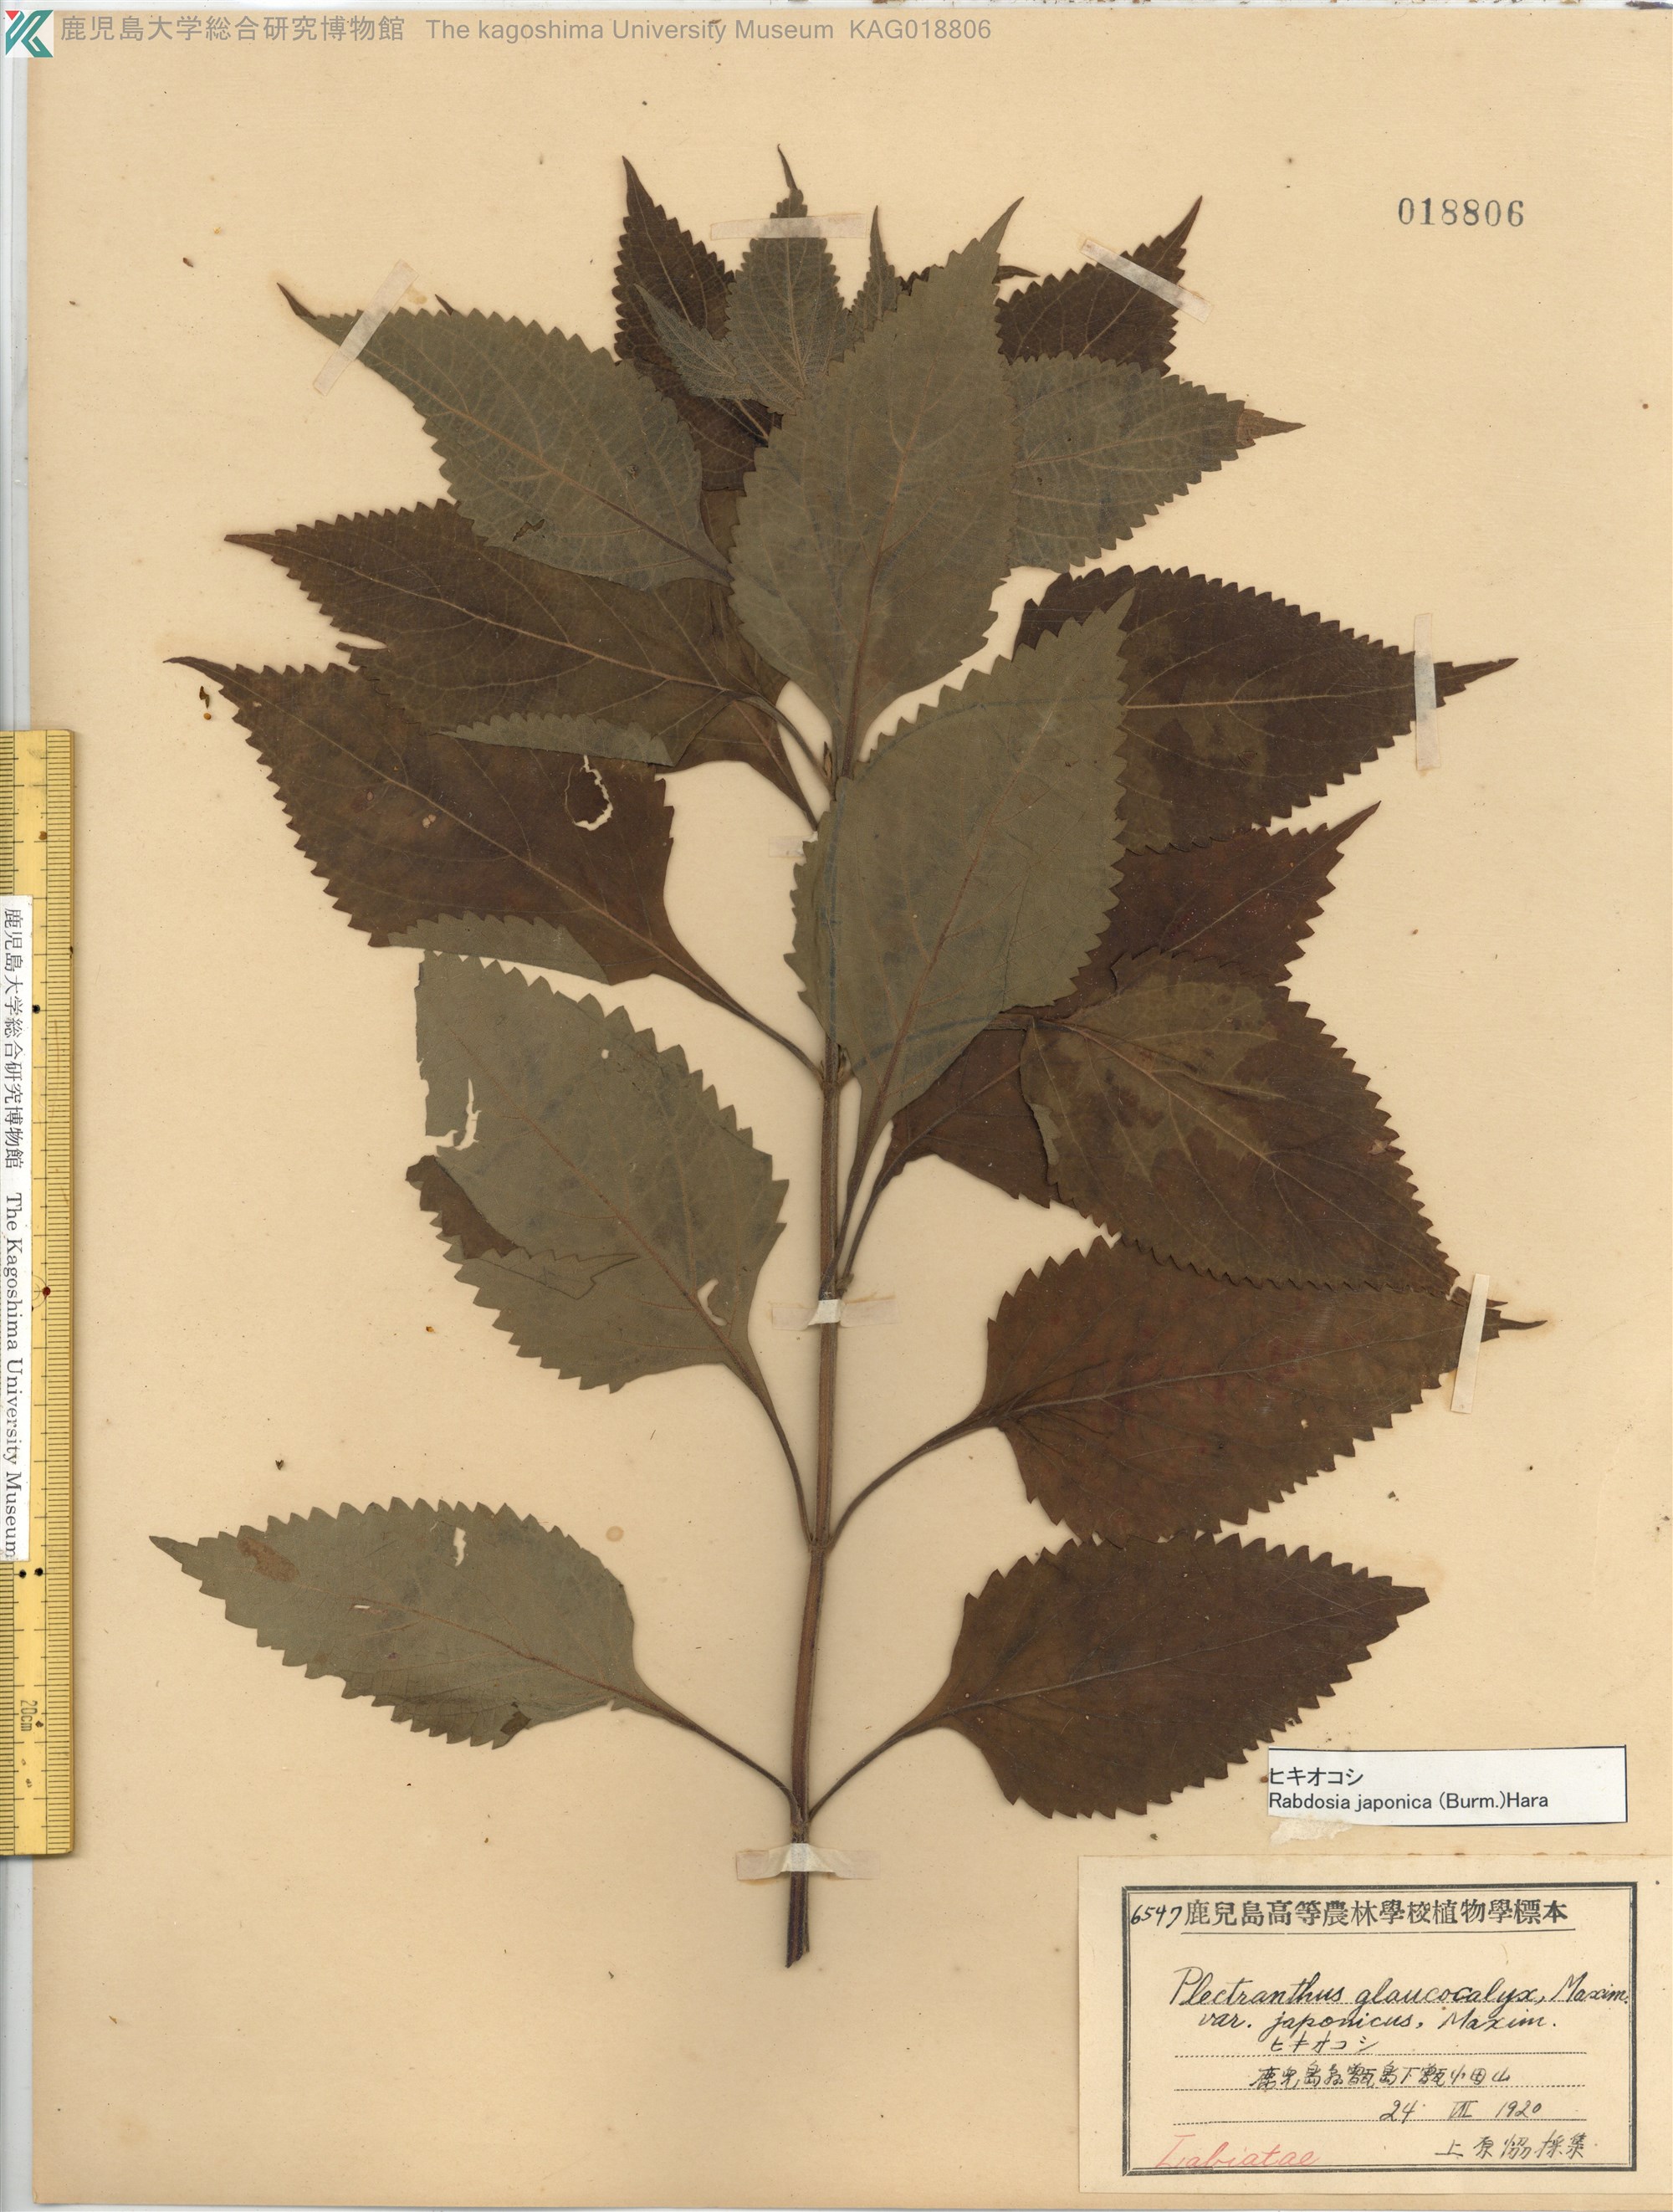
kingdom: Plantae
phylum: Tracheophyta
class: Magnoliopsida
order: Lamiales
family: Lamiaceae
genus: Isodon
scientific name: Isodon japonicus
